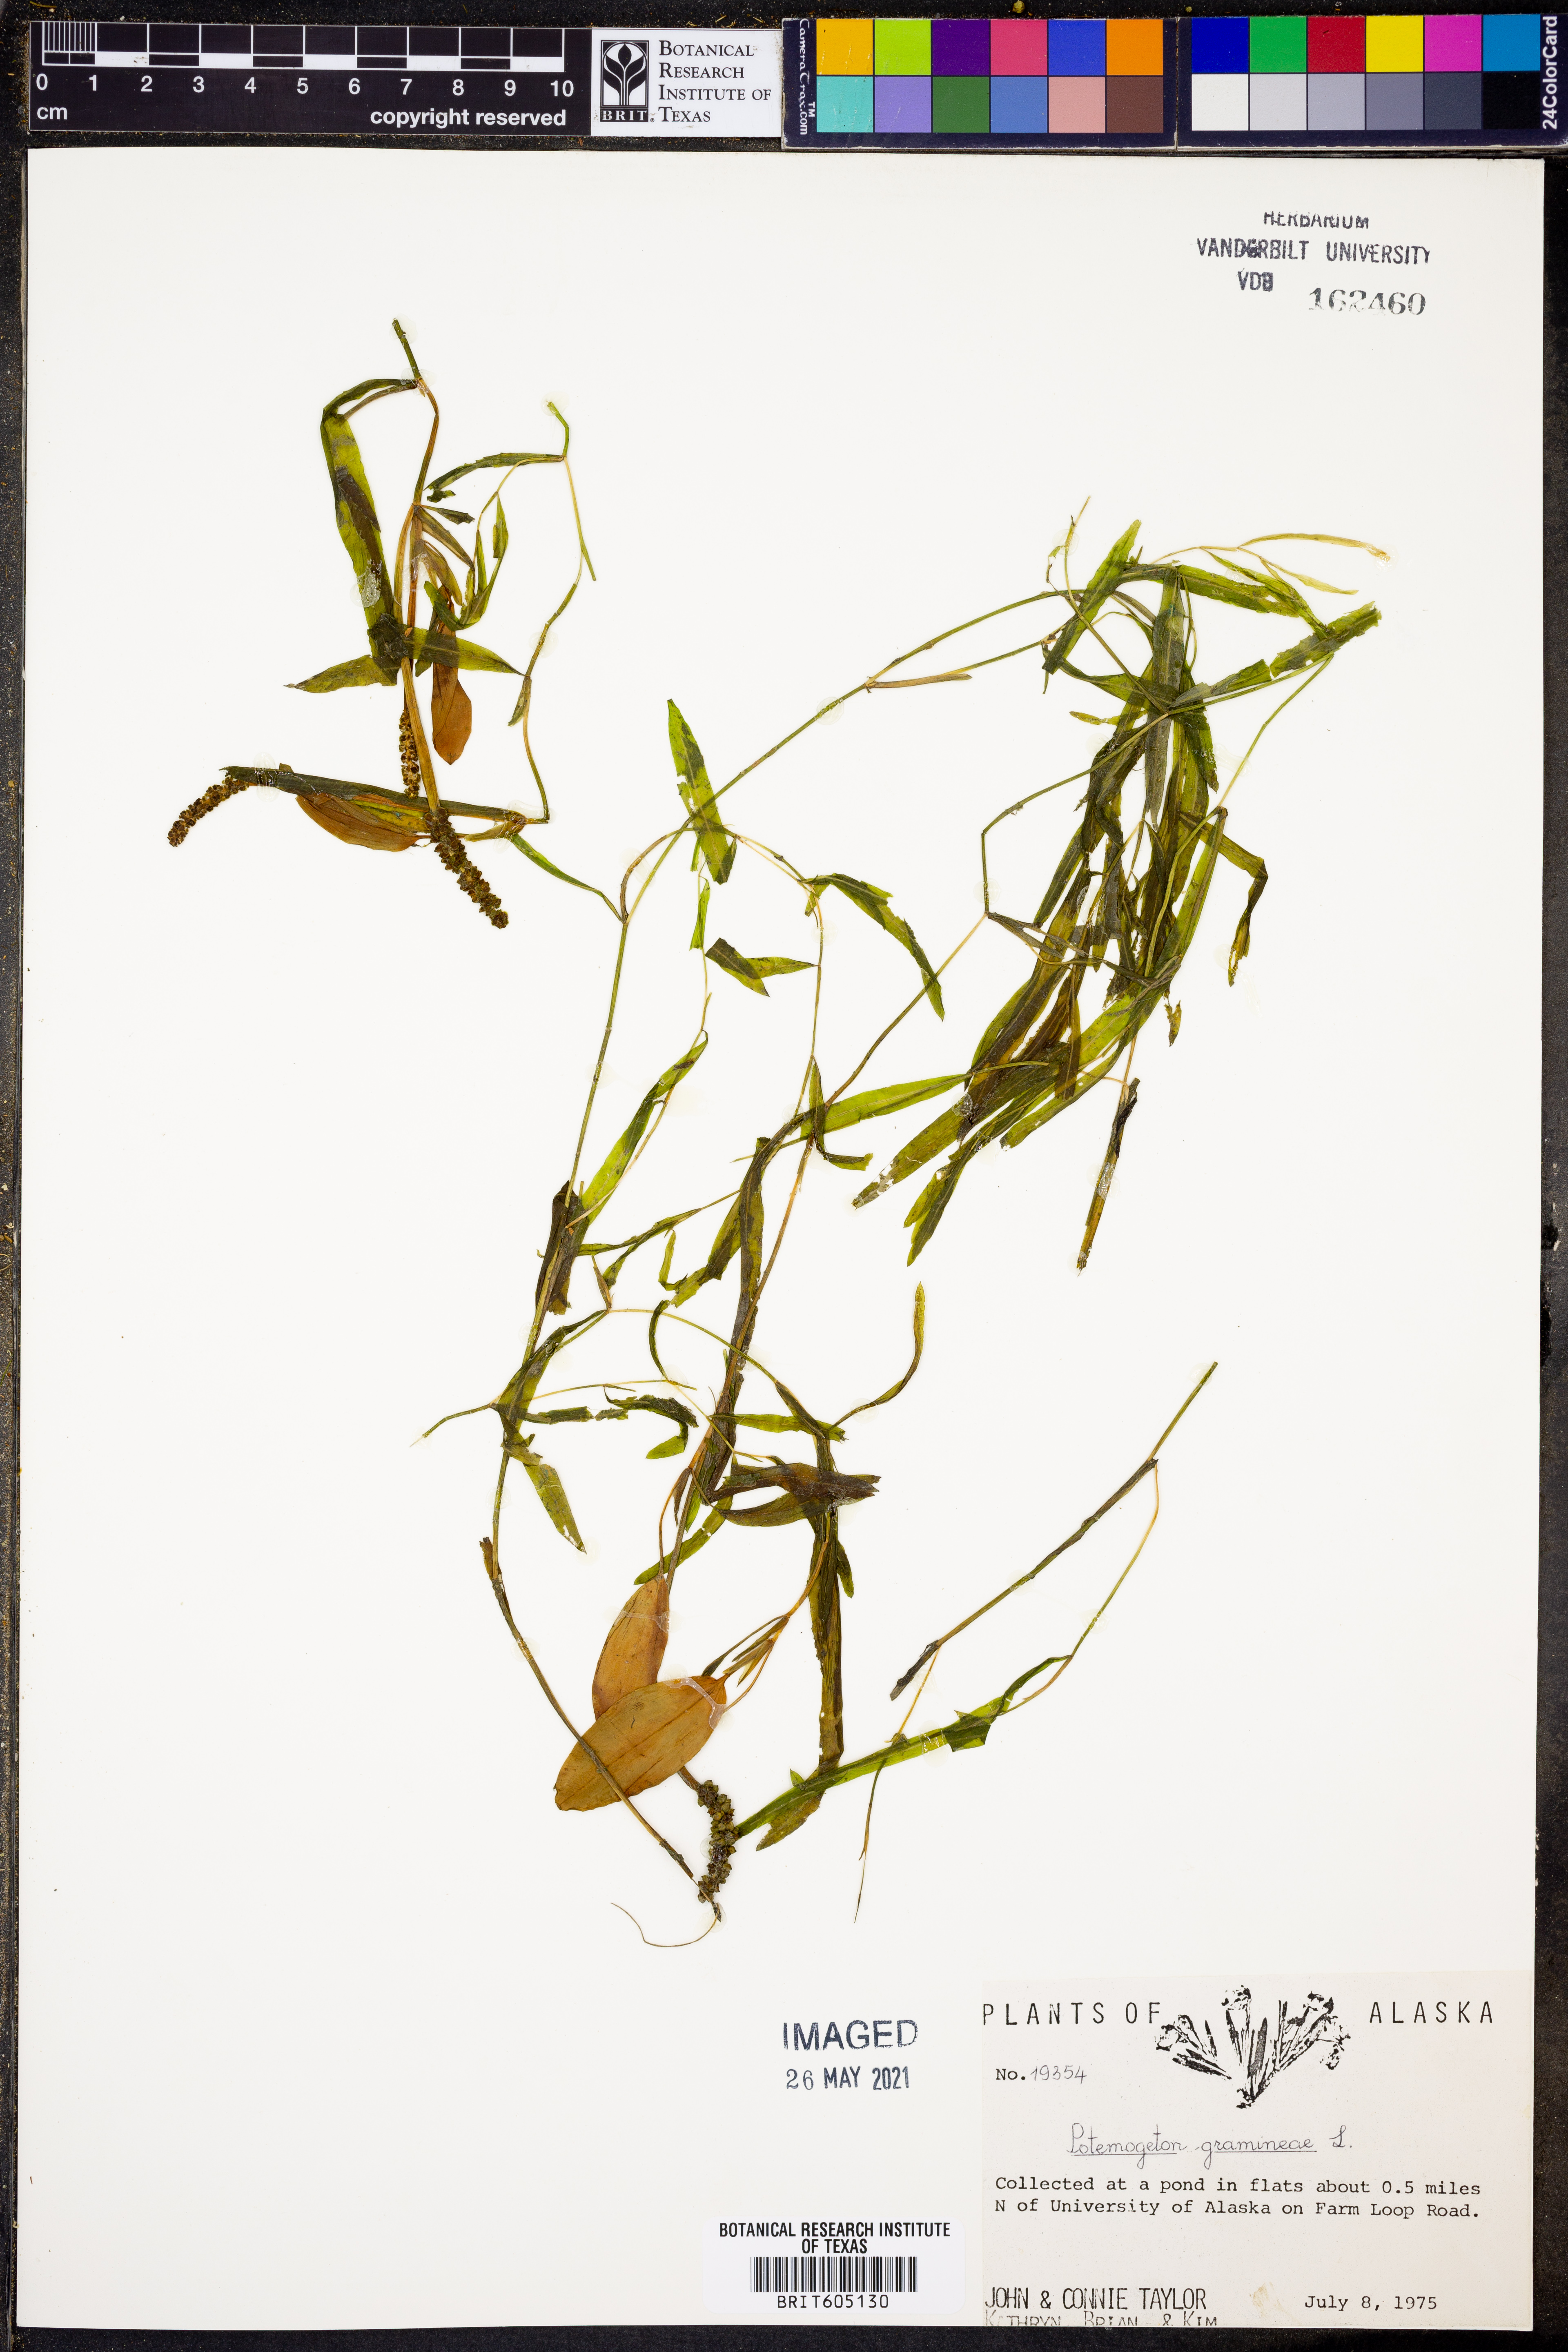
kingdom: Plantae
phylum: Tracheophyta
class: Liliopsida
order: Alismatales
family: Potamogetonaceae
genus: Potamogeton
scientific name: Potamogeton gramineus
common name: Various-leaved pondweed
